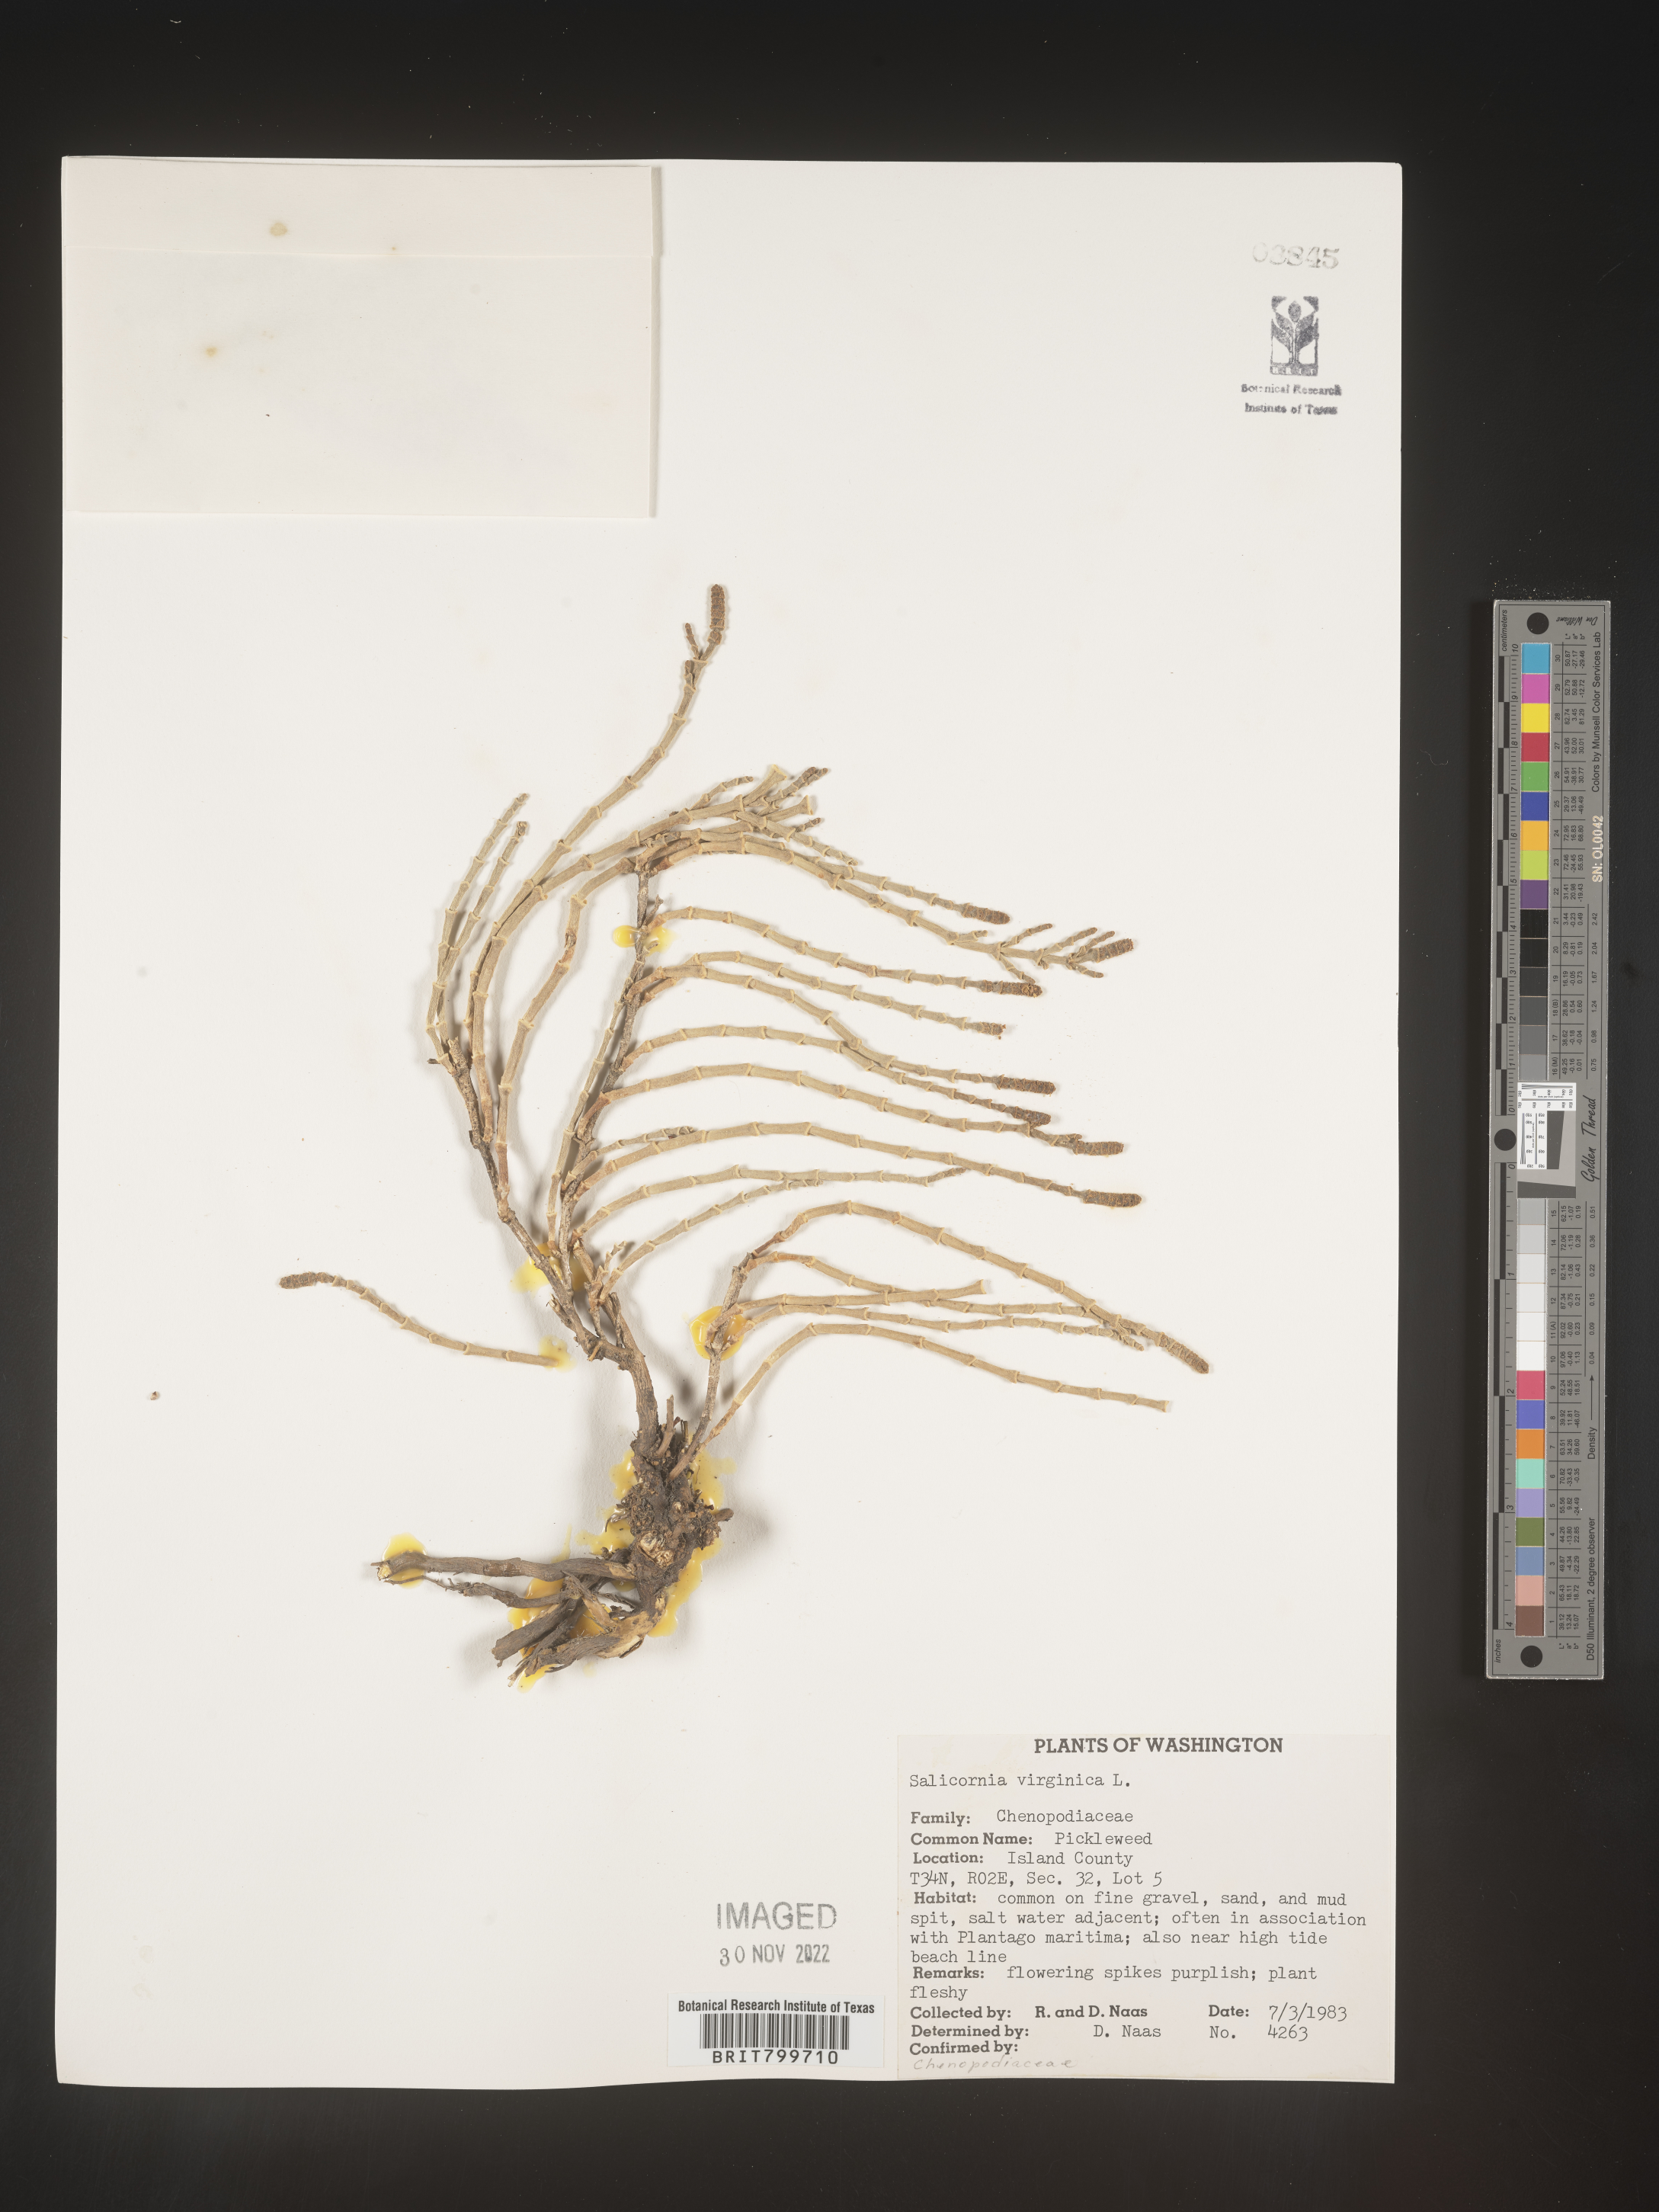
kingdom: Plantae
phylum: Tracheophyta
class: Magnoliopsida
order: Caryophyllales
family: Amaranthaceae
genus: Salicornia
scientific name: Salicornia virginica
